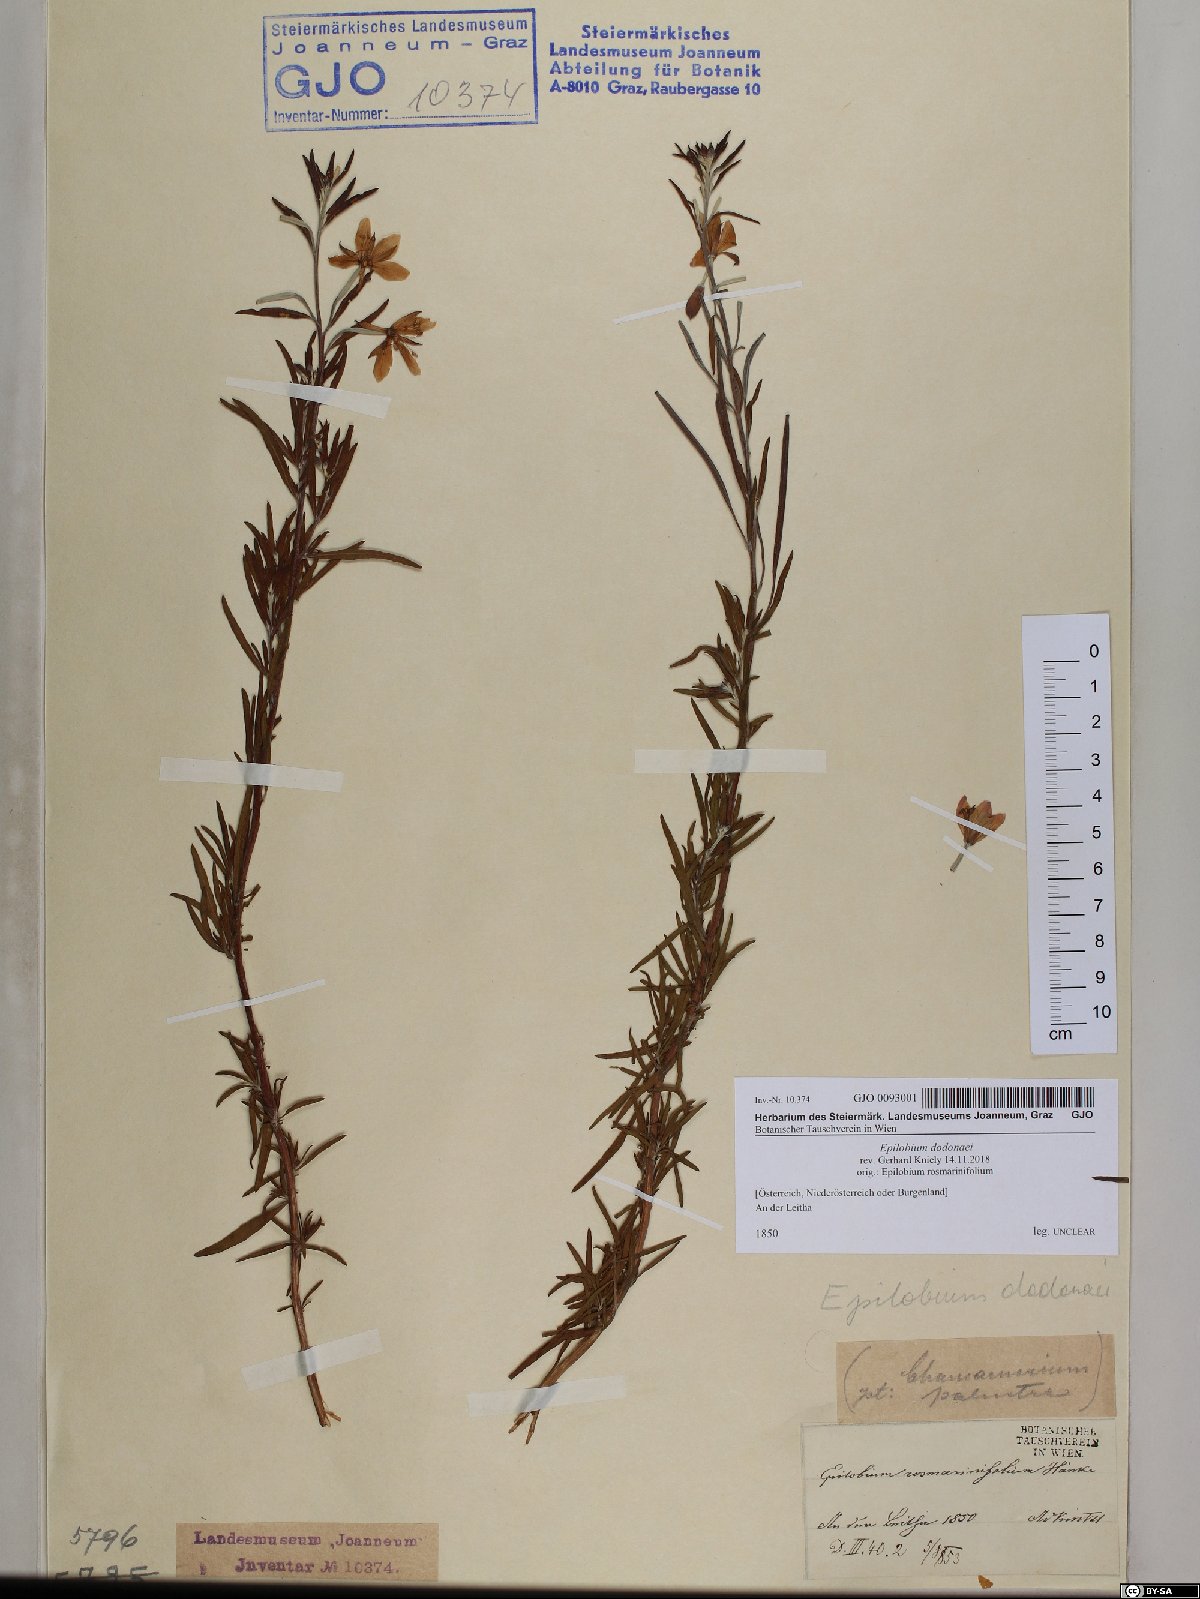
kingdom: Plantae
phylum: Tracheophyta
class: Magnoliopsida
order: Myrtales
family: Onagraceae
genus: Chamaenerion
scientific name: Chamaenerion dodonaei
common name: Rosemary-leaved willowherb
